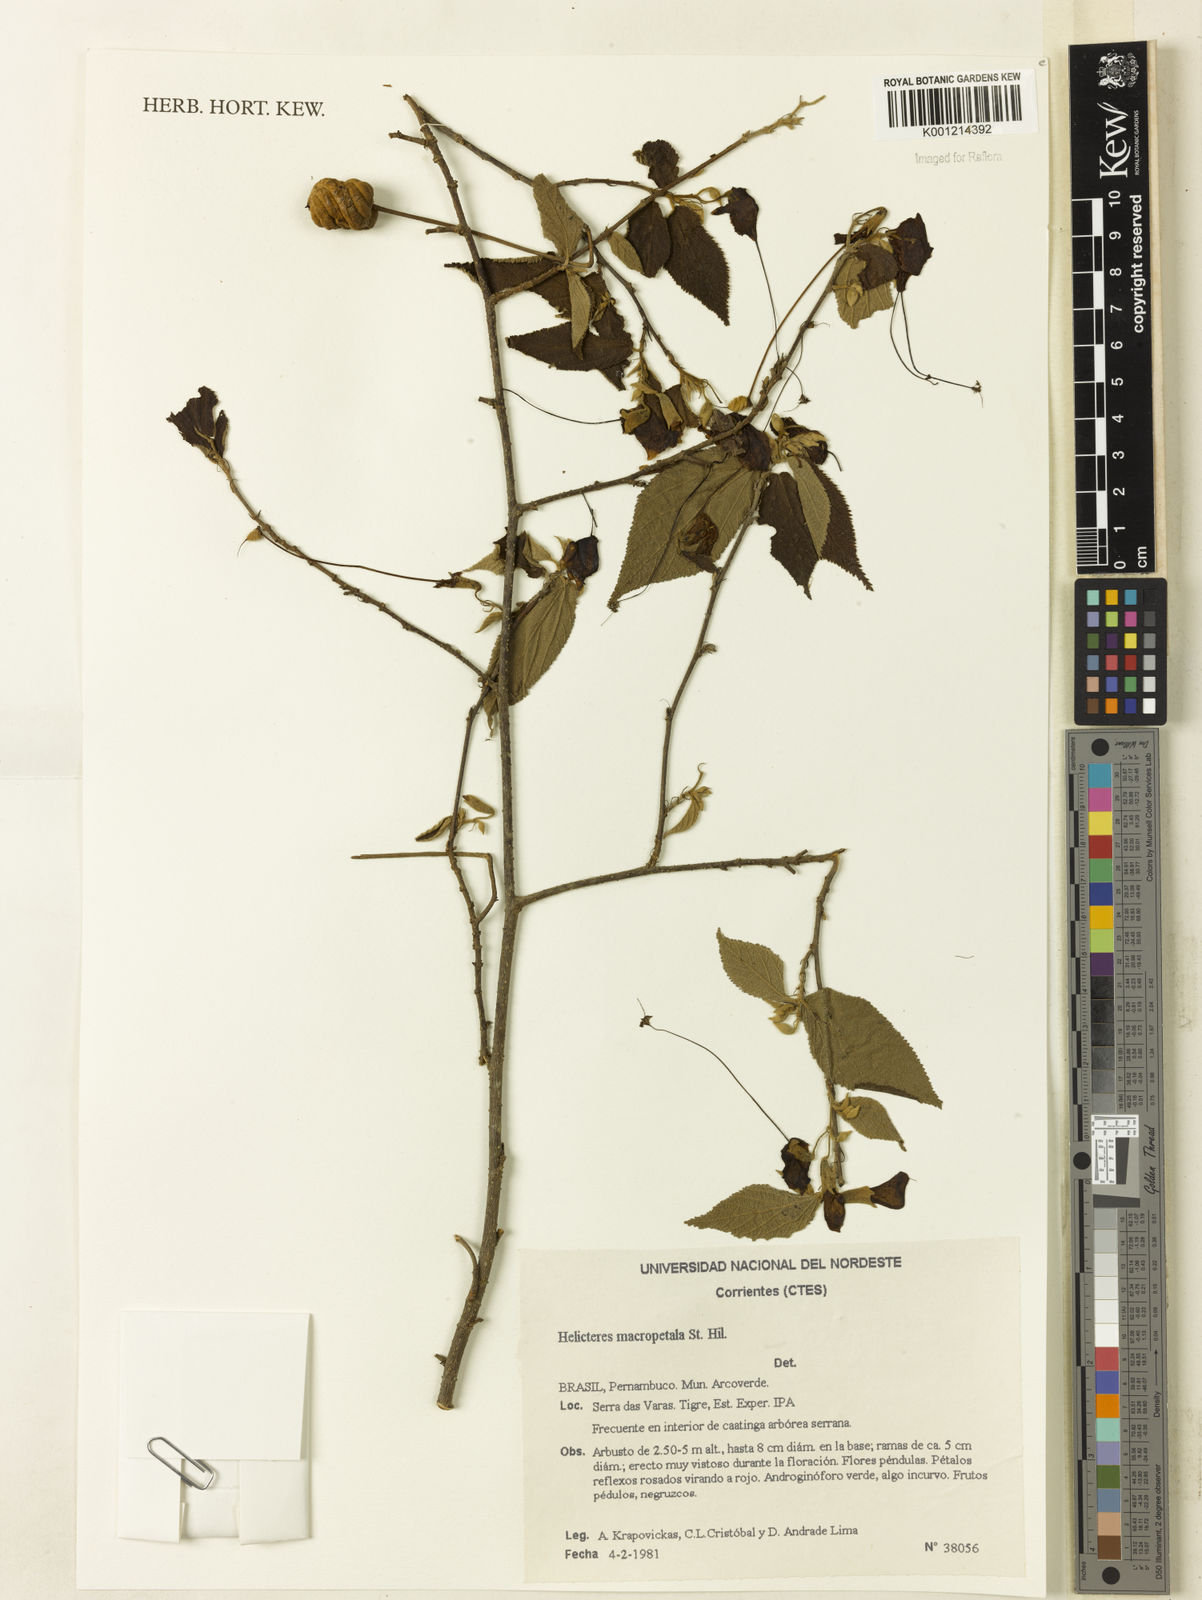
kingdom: Plantae
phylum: Tracheophyta
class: Magnoliopsida
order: Malvales
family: Malvaceae
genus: Helicteres
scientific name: Helicteres
